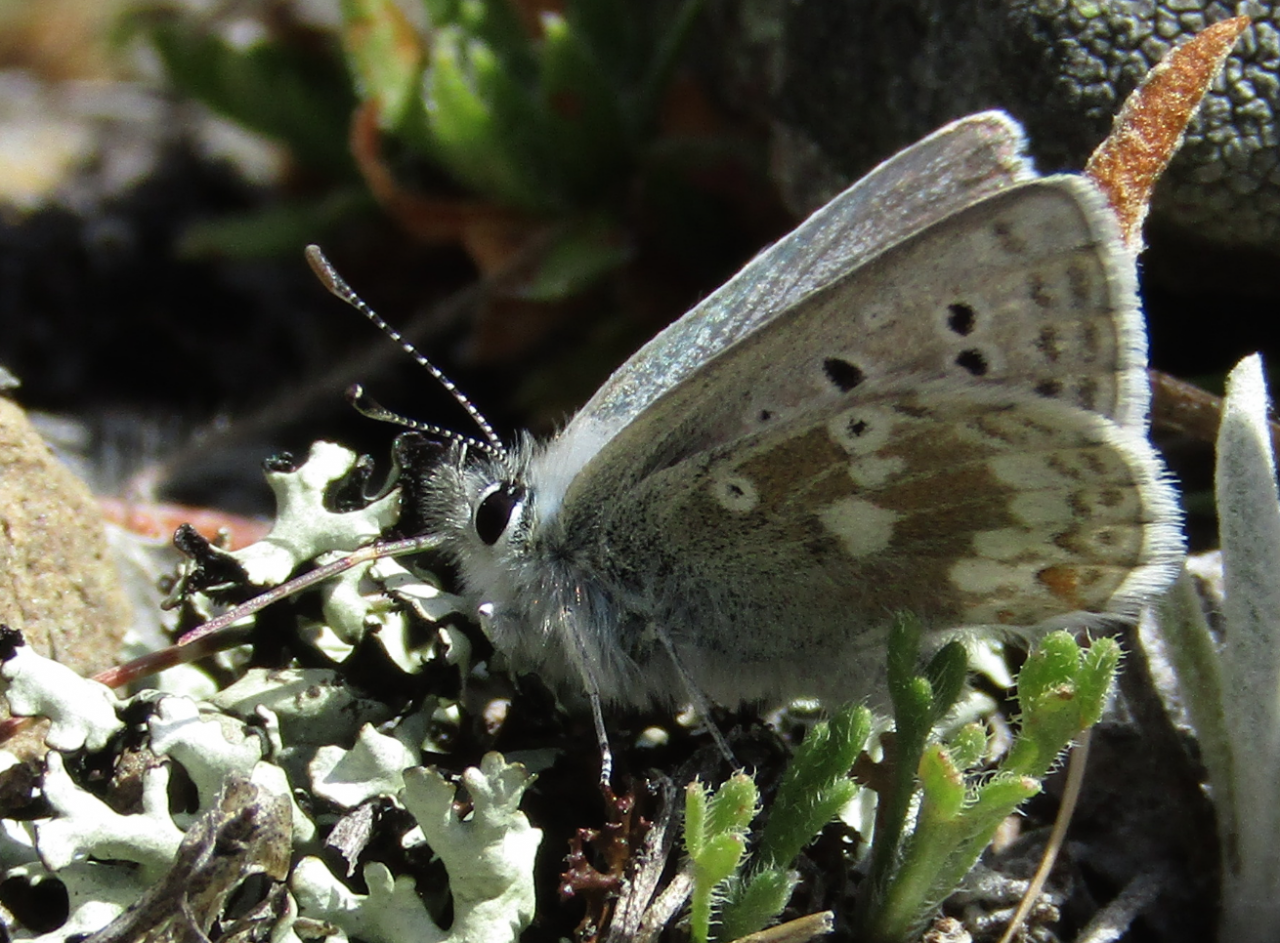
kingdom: Animalia
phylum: Arthropoda
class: Insecta
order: Lepidoptera
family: Lycaenidae
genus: Icaricia
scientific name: Icaricia icarioides
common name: Boisduval's Blue
